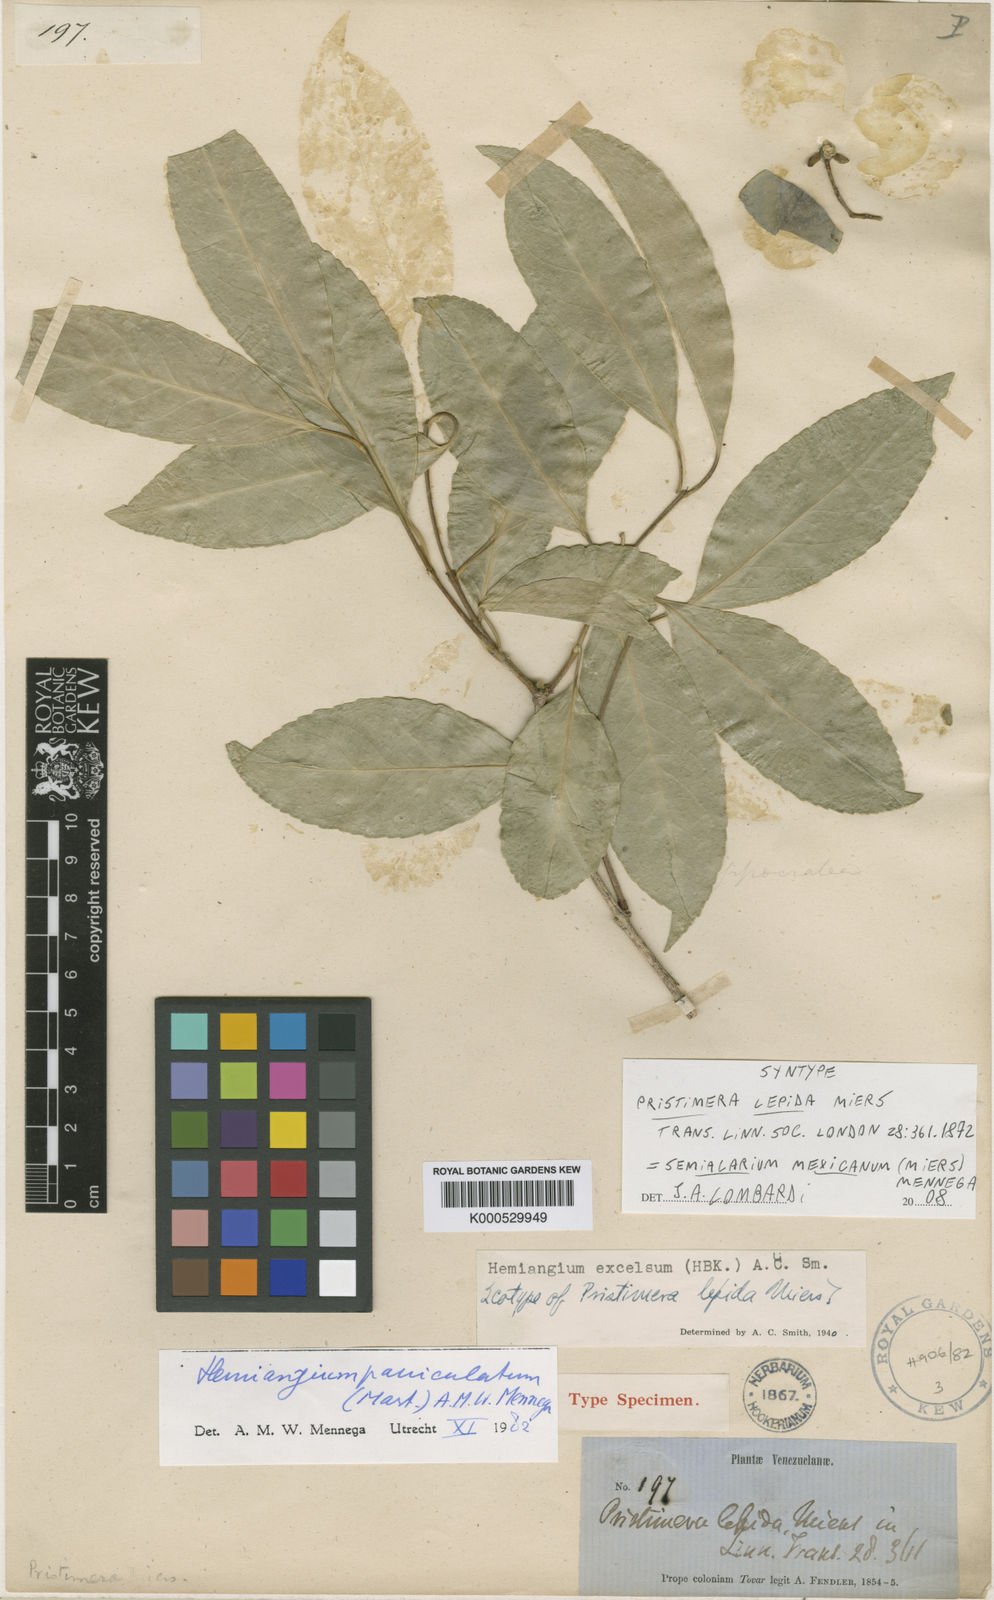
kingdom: Plantae
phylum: Tracheophyta
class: Magnoliopsida
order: Celastrales
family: Celastraceae
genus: Semialarium
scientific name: Semialarium
